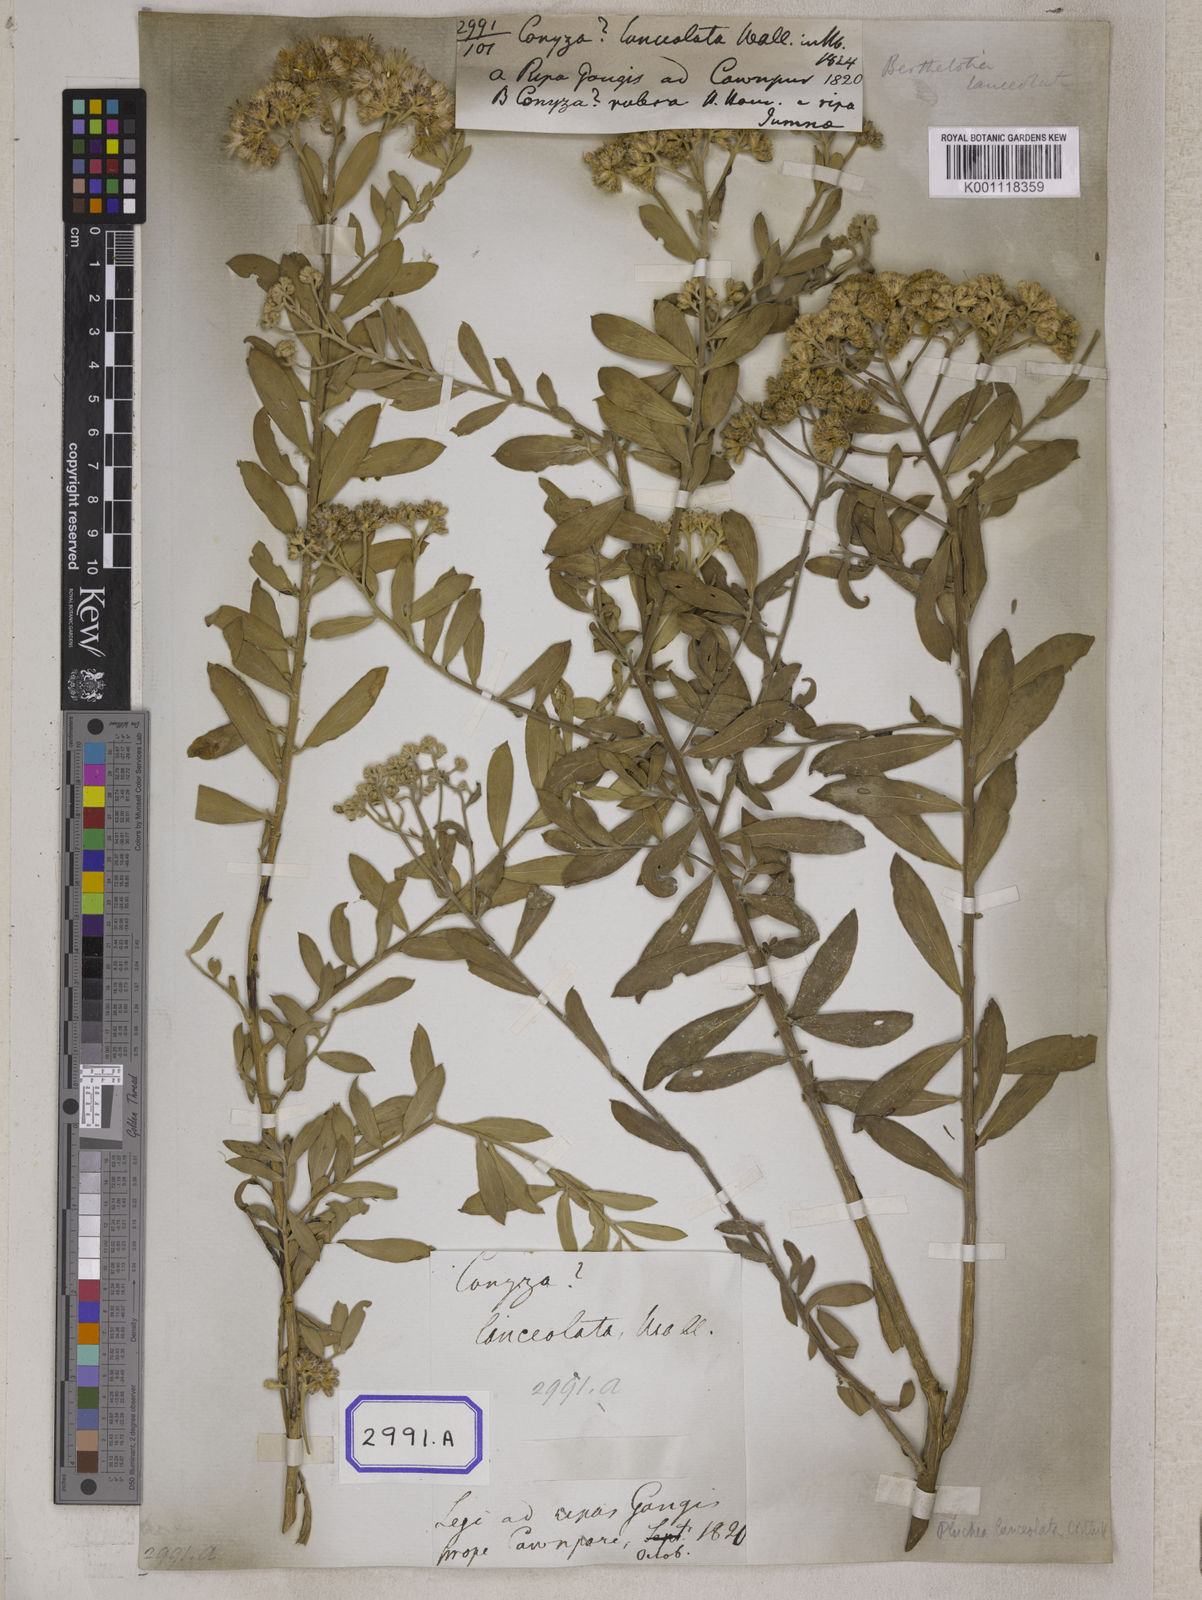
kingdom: Plantae
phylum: Tracheophyta
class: Magnoliopsida
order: Asterales
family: Asteraceae
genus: Acilepis
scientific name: Acilepis divergens
